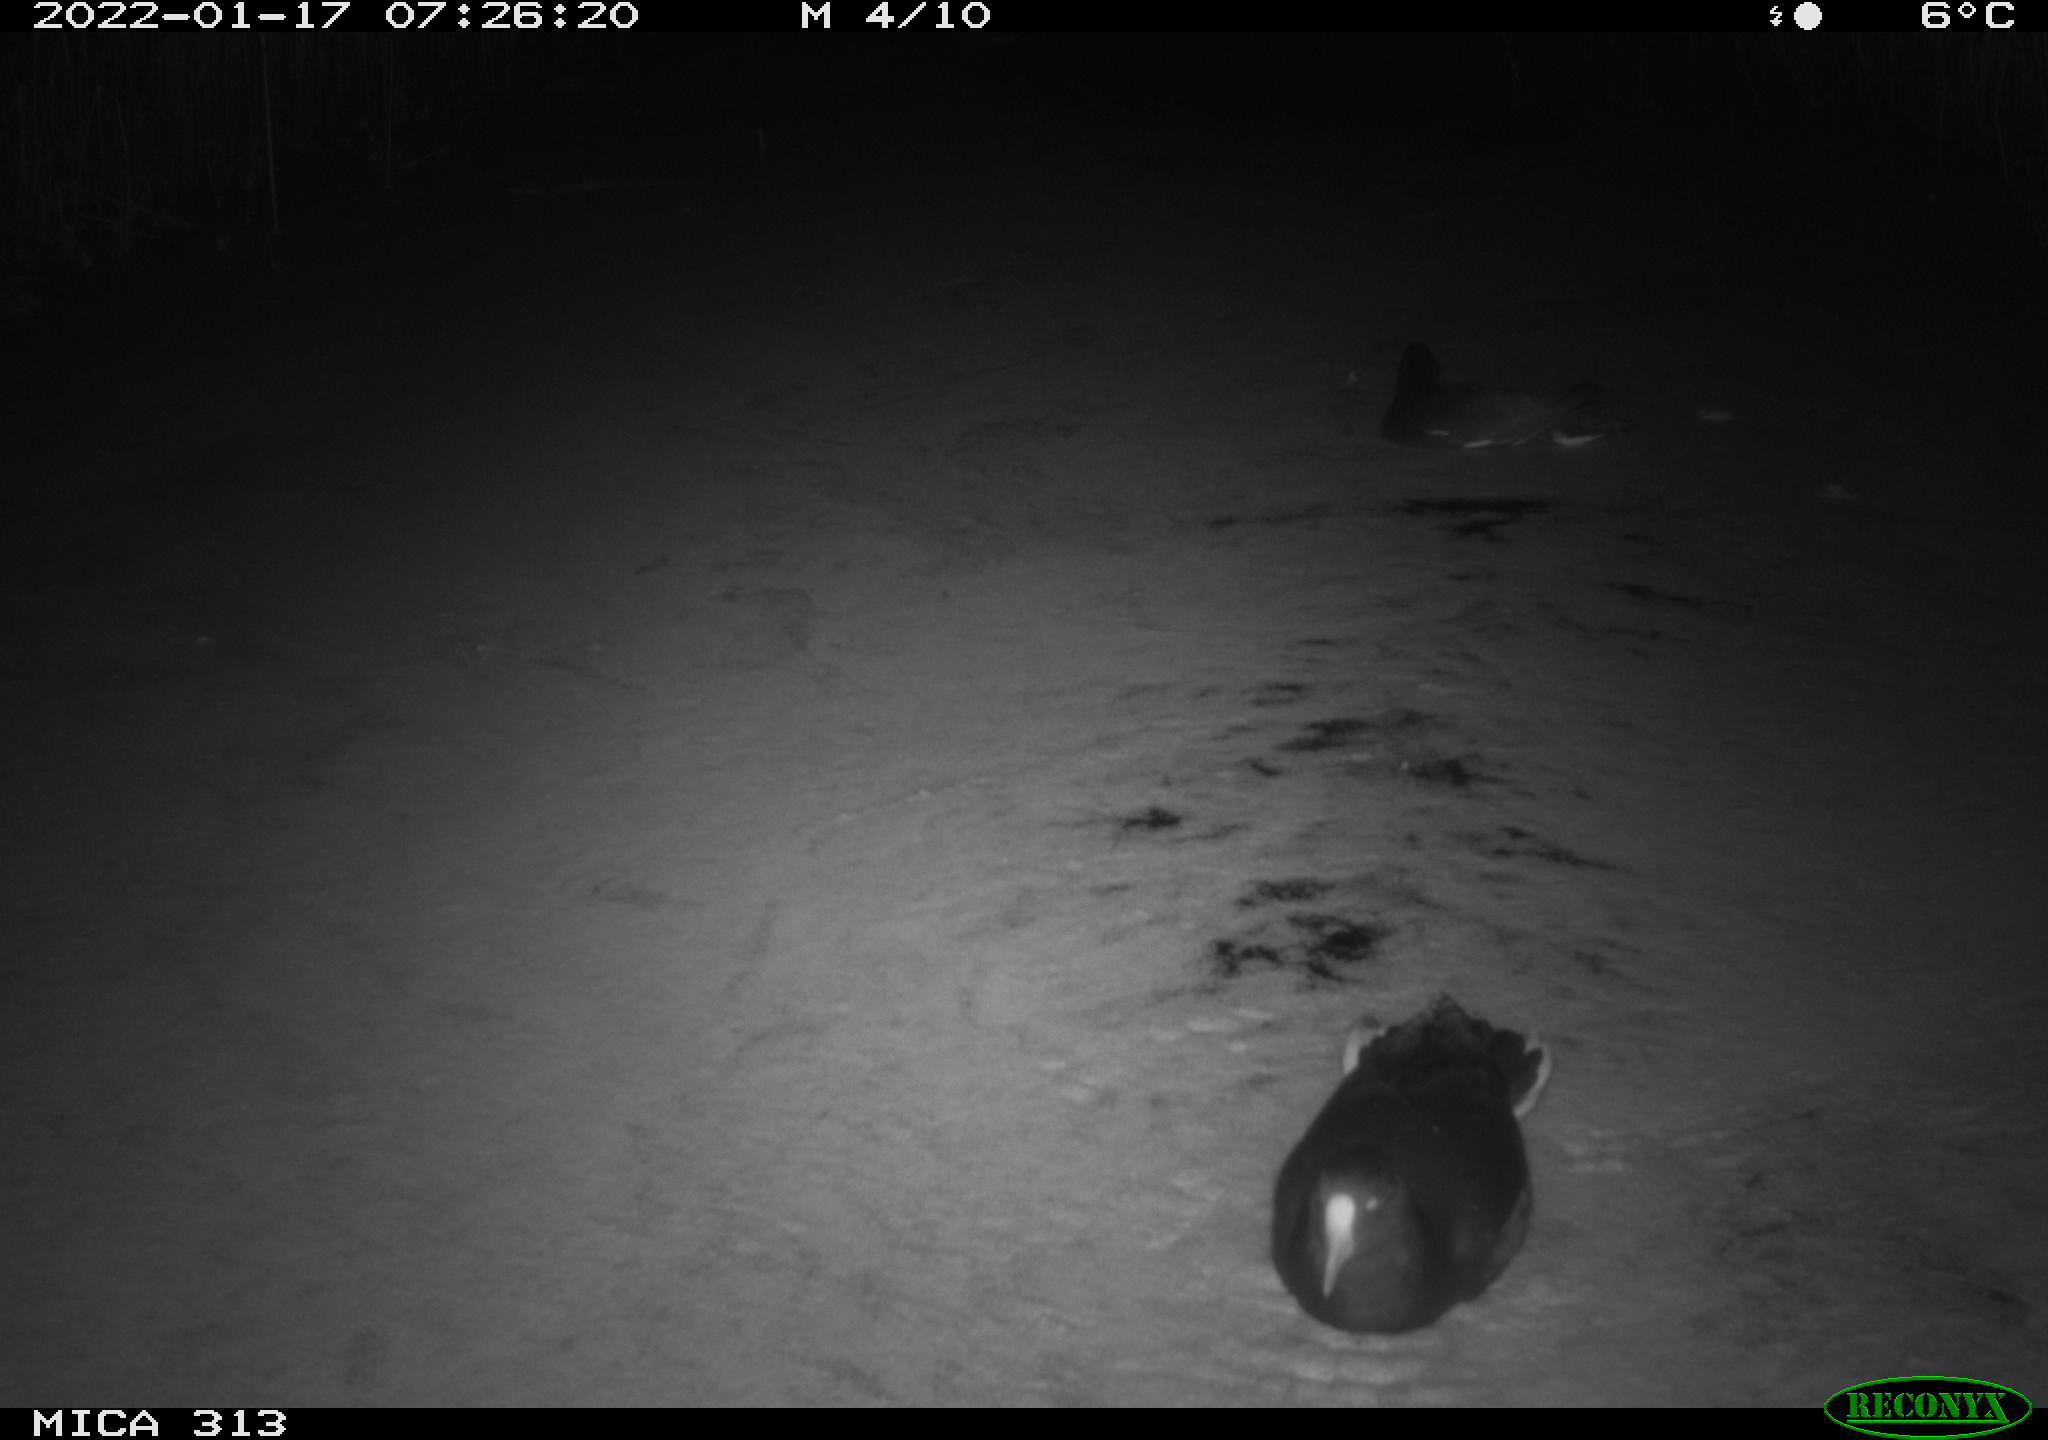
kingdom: Animalia
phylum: Chordata
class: Aves
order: Gruiformes
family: Rallidae
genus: Gallinula
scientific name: Gallinula chloropus
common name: Common moorhen
